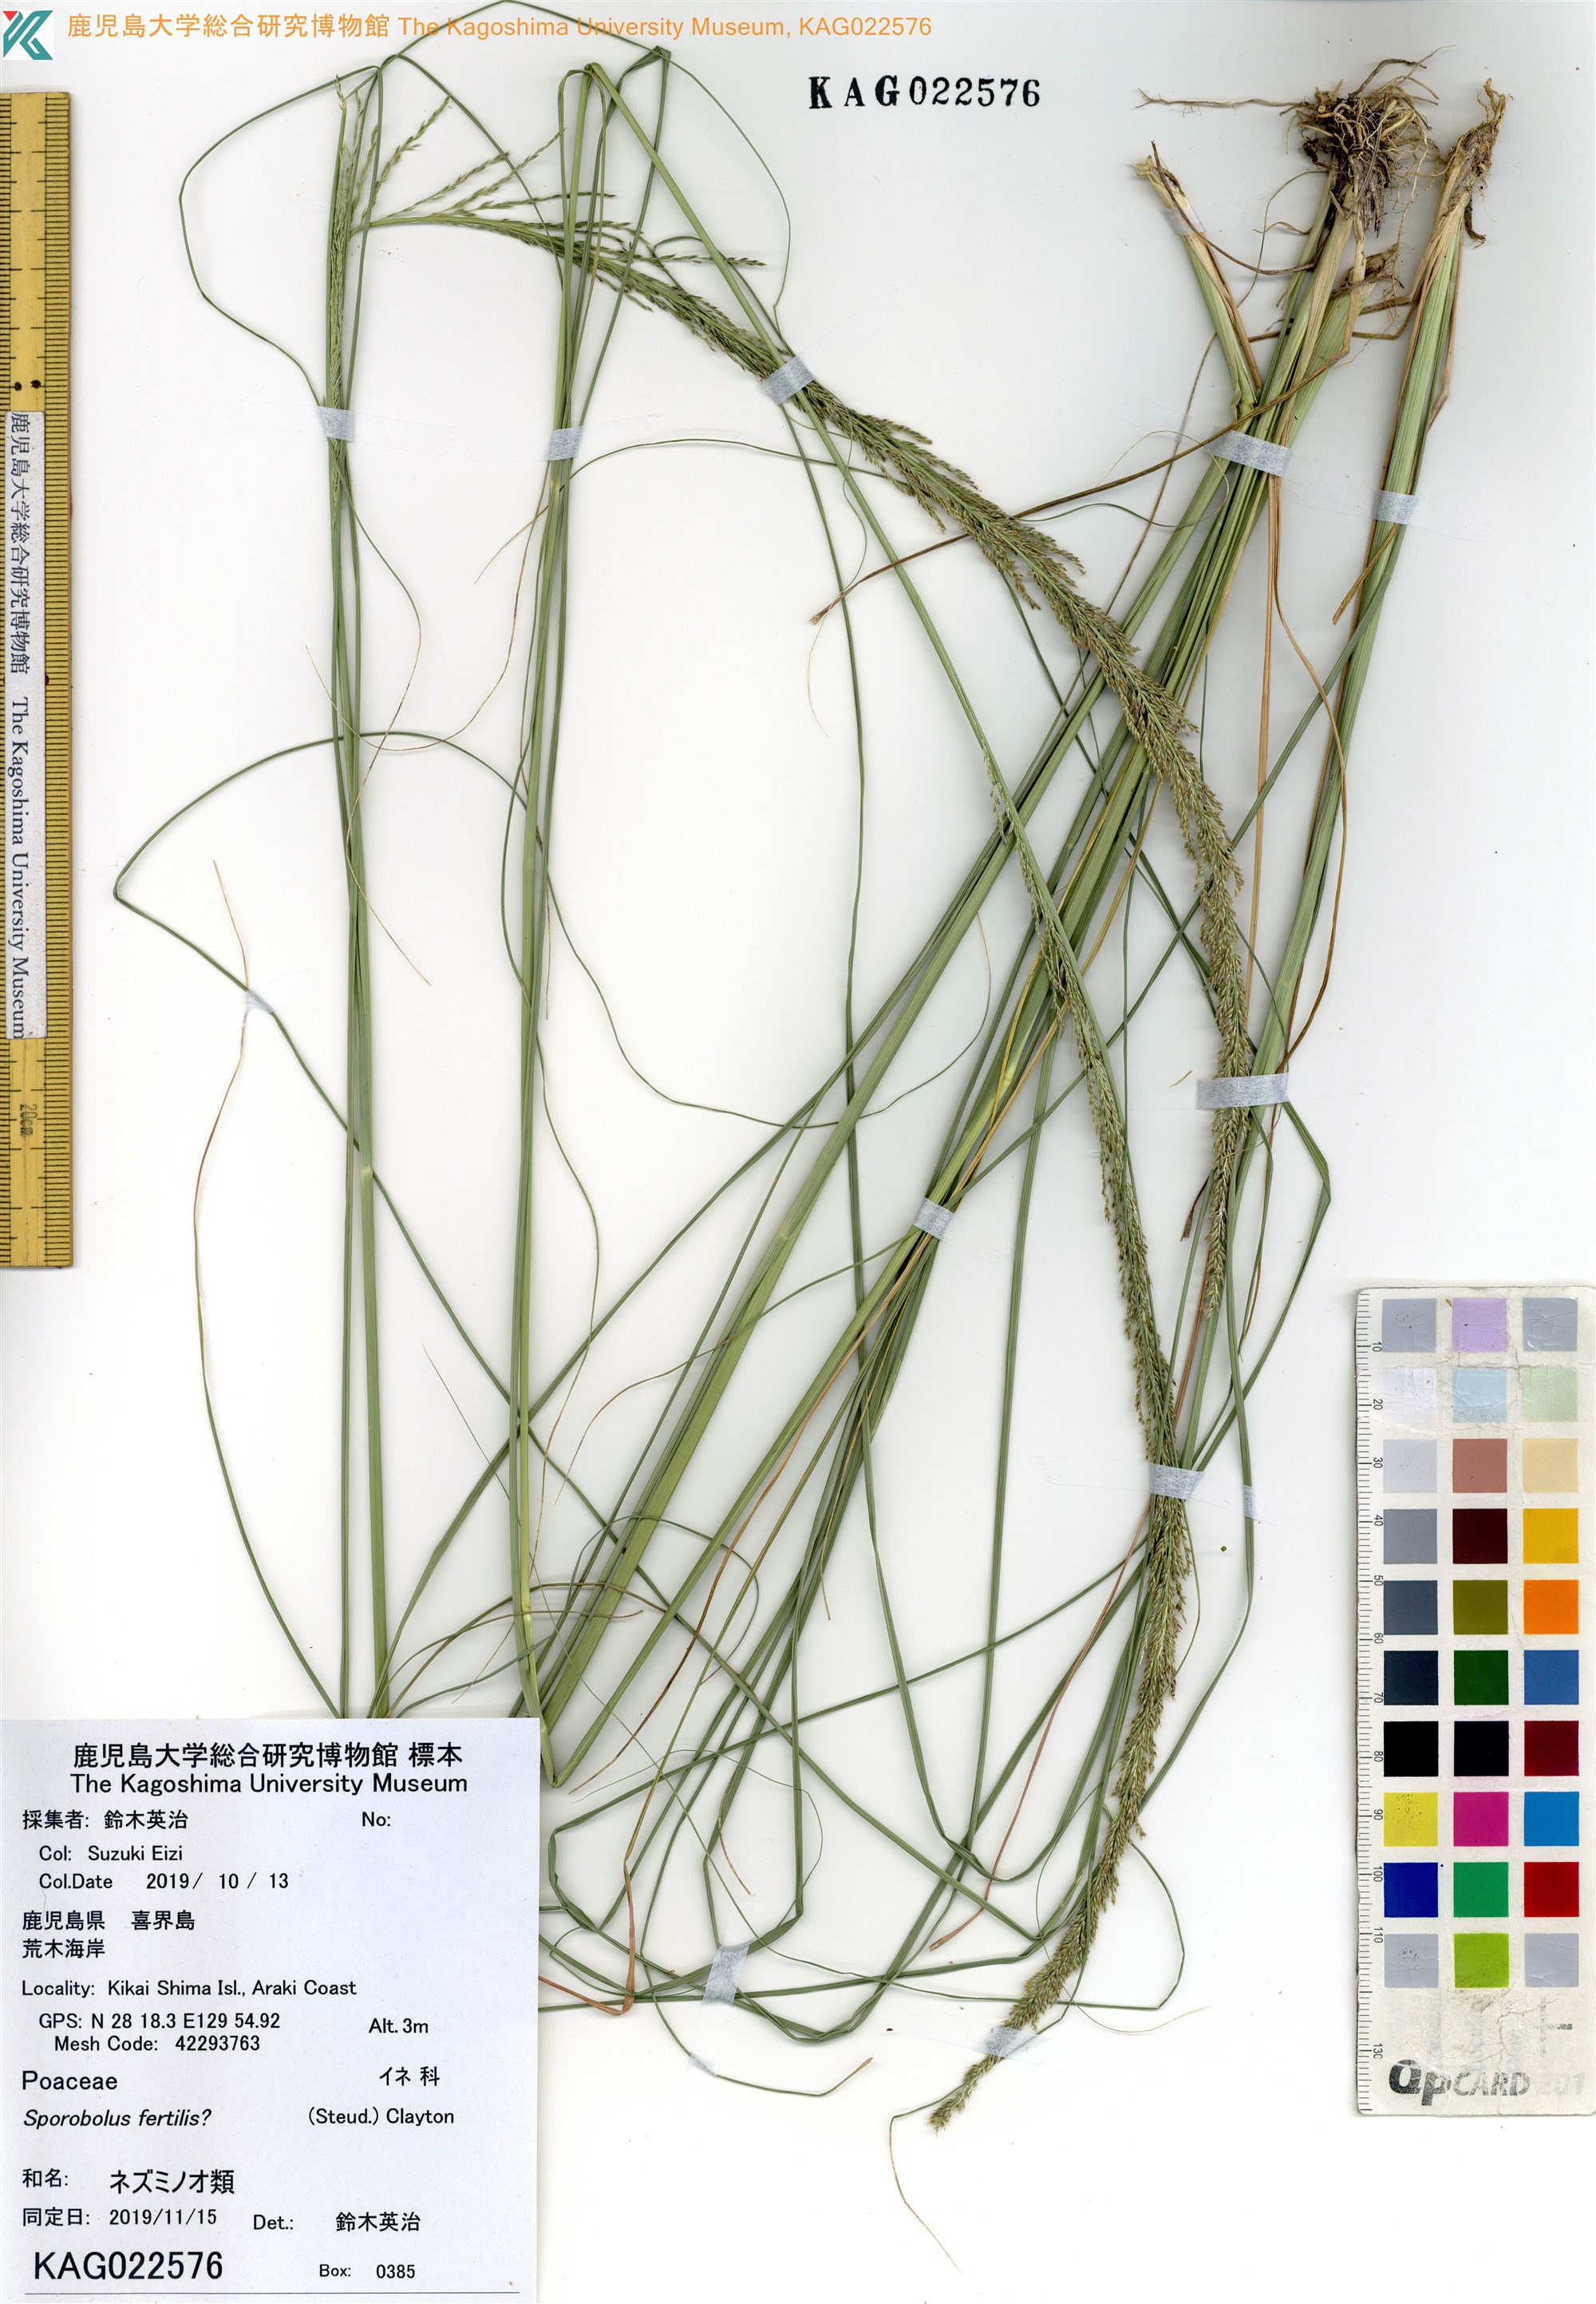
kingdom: Plantae
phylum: Tracheophyta
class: Liliopsida
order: Poales
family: Poaceae
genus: Sporobolus
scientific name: Sporobolus fertilis
